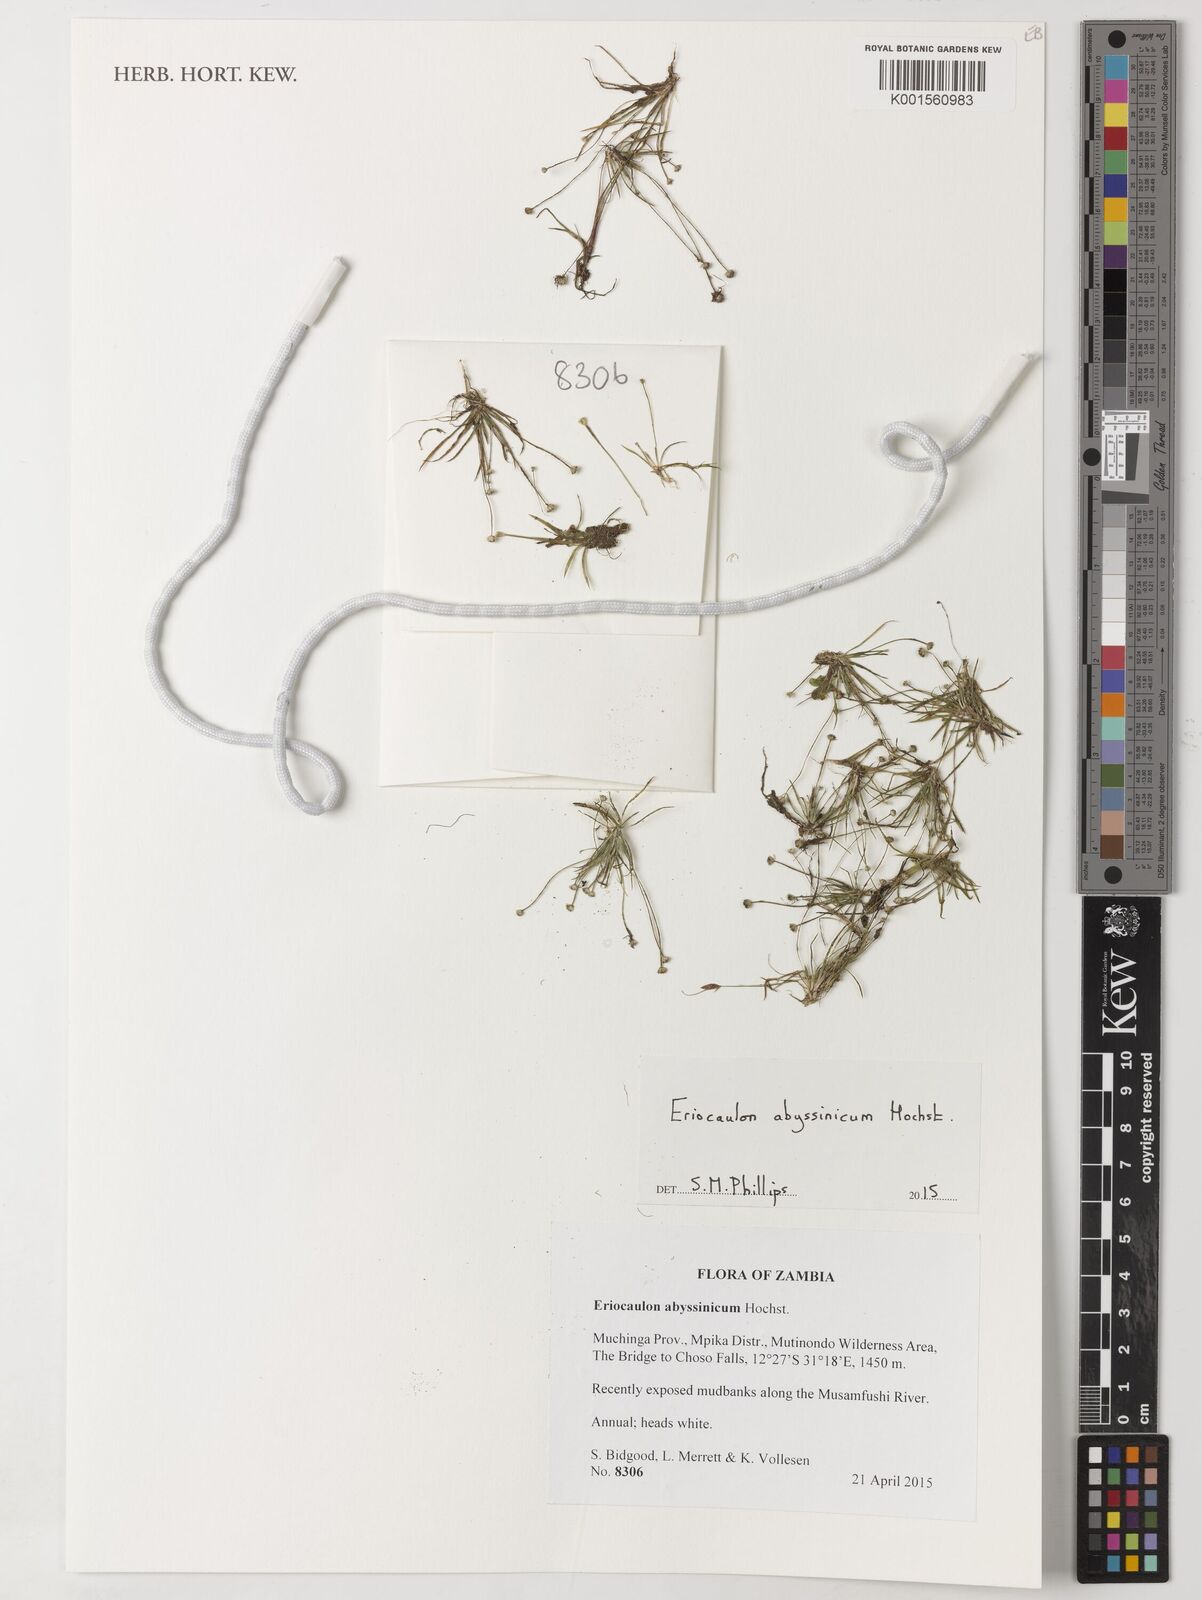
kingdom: Plantae
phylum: Tracheophyta
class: Liliopsida
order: Poales
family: Eriocaulaceae
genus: Eriocaulon
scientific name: Eriocaulon abyssinicum
